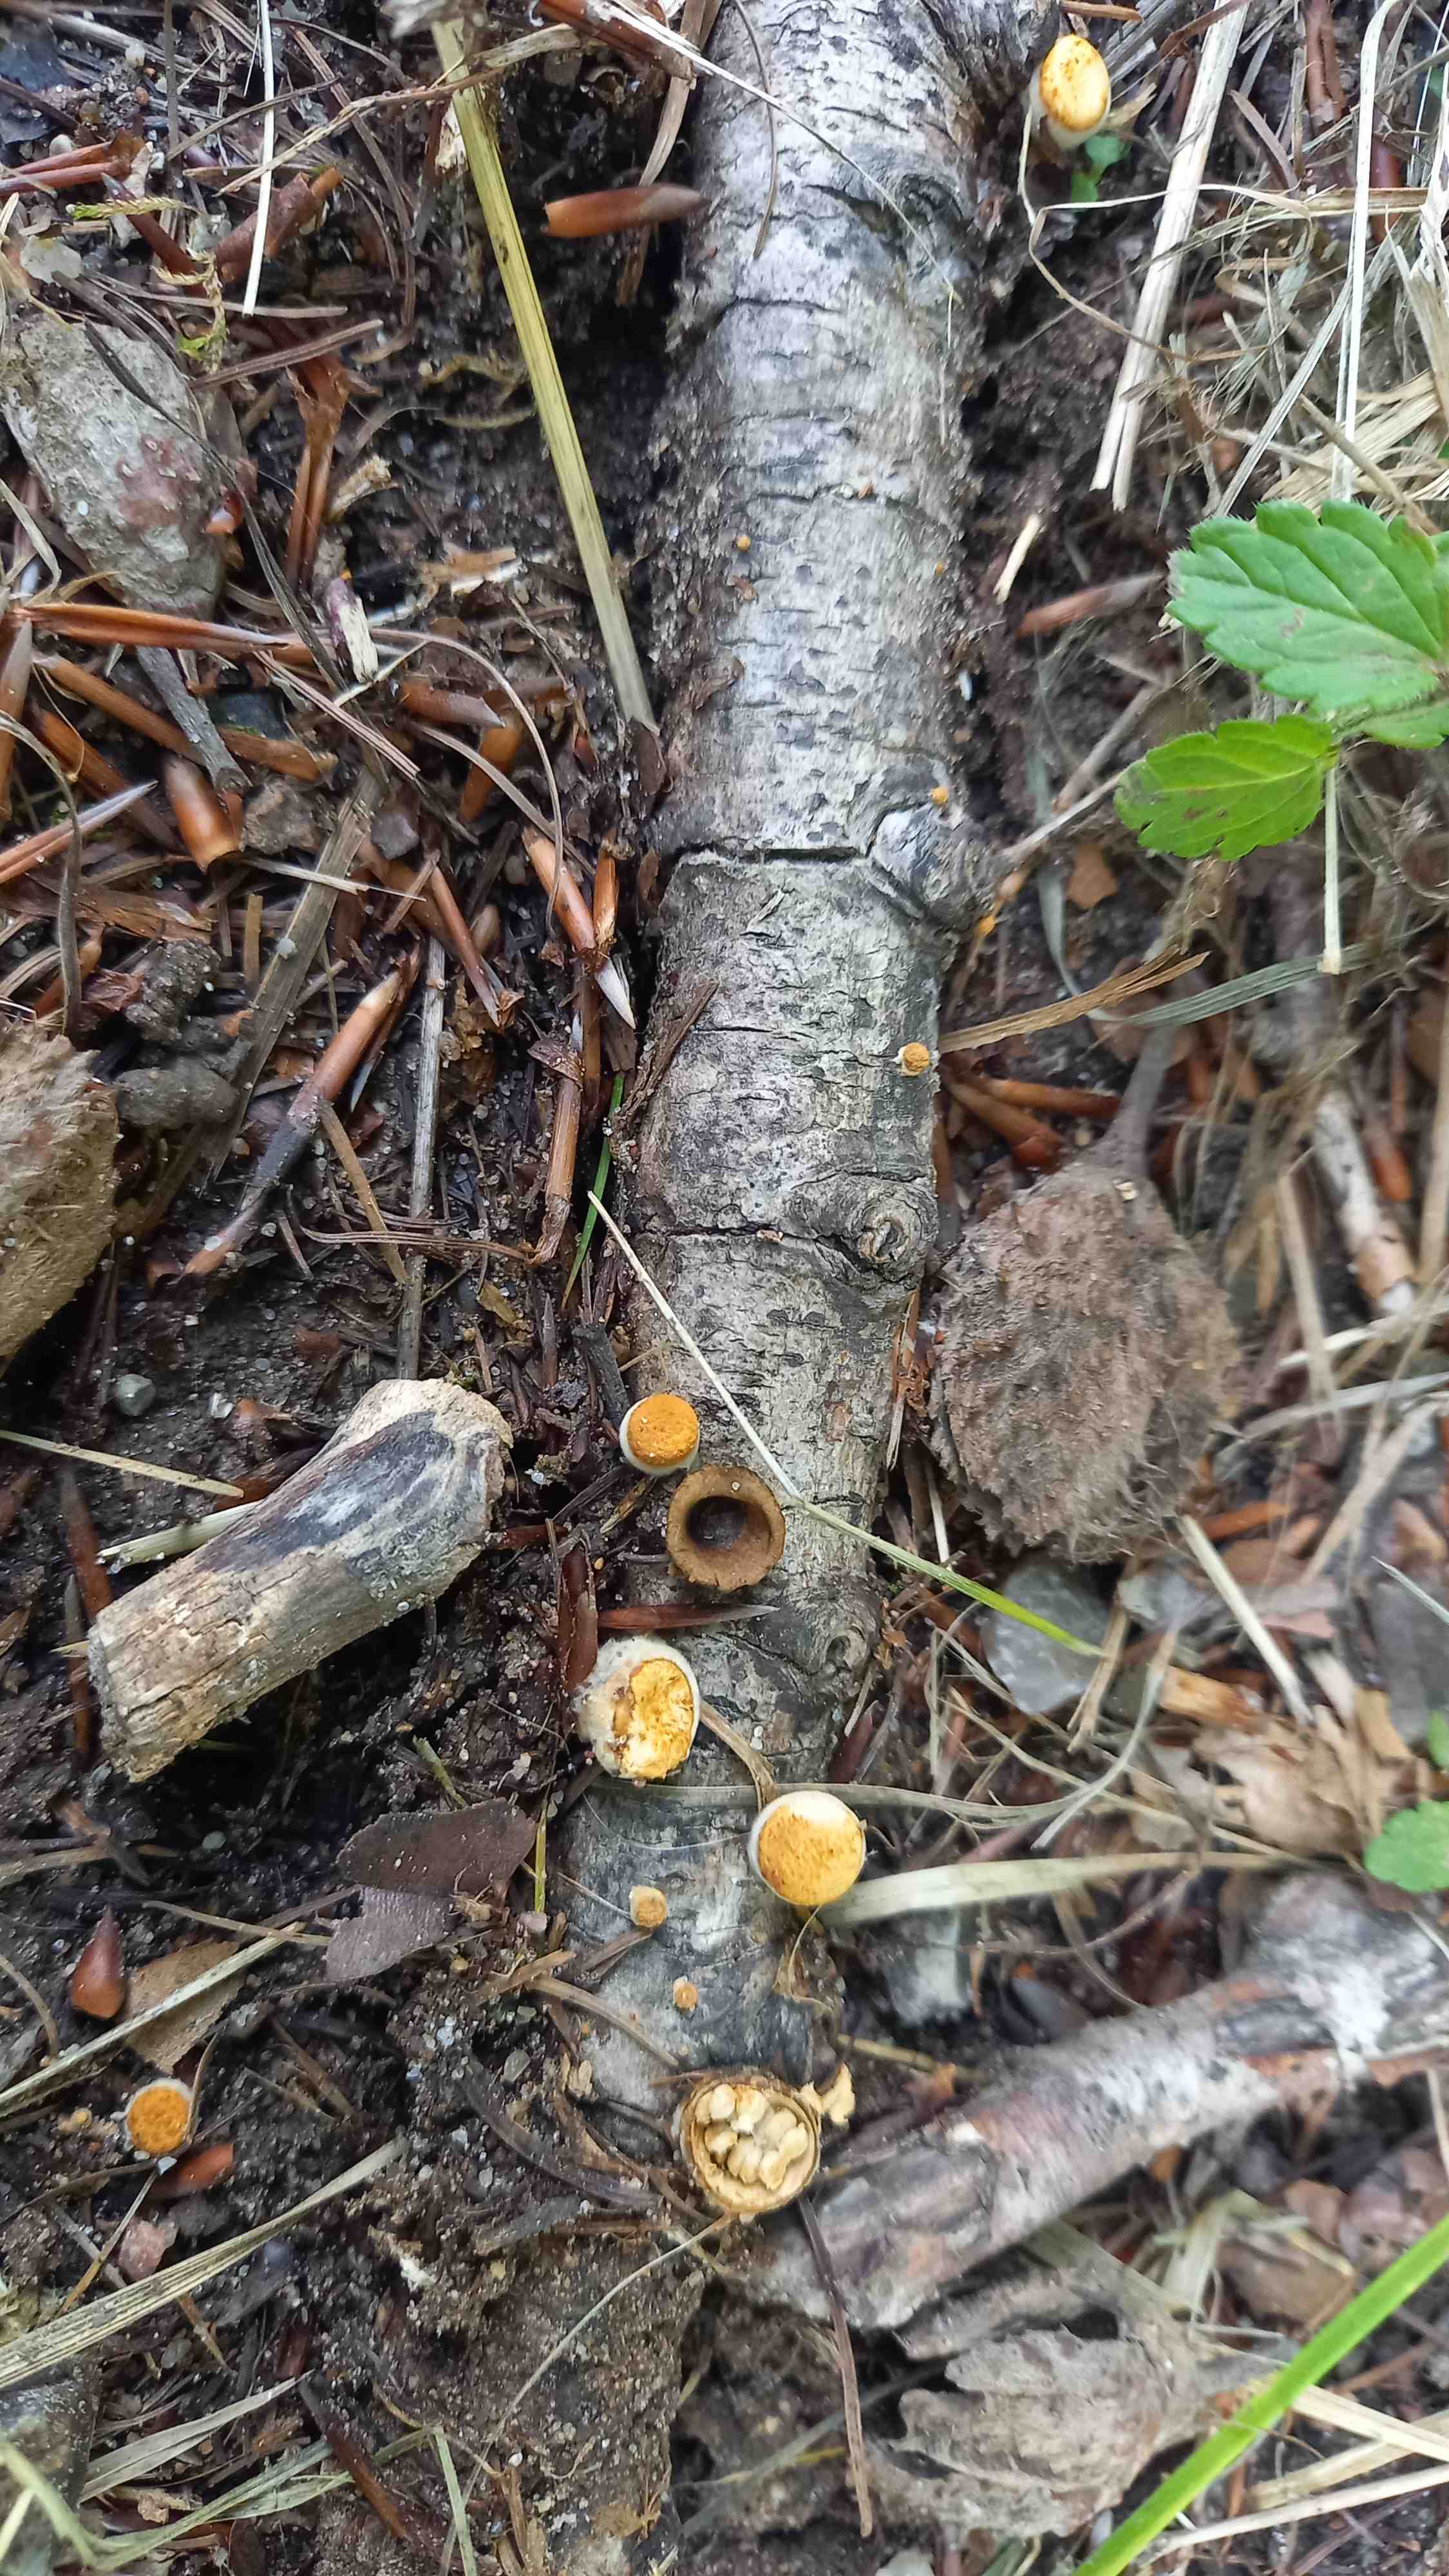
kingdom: Fungi
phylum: Basidiomycota
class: Agaricomycetes
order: Agaricales
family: Nidulariaceae
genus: Crucibulum
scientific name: Crucibulum crucibuliforme
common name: krukkesvamp
